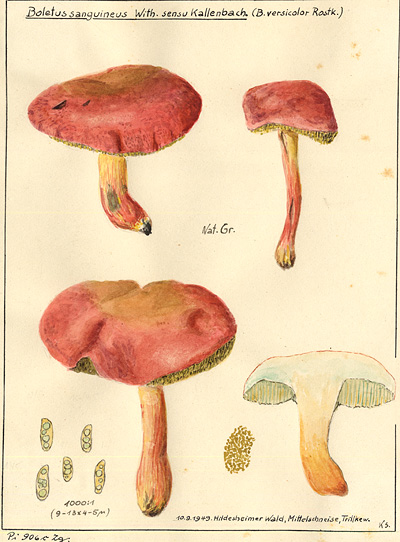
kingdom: Fungi
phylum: Basidiomycota
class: Agaricomycetes
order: Boletales
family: Boletaceae
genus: Hortiboletus
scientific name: Hortiboletus rubellus
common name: Ruby bolete
